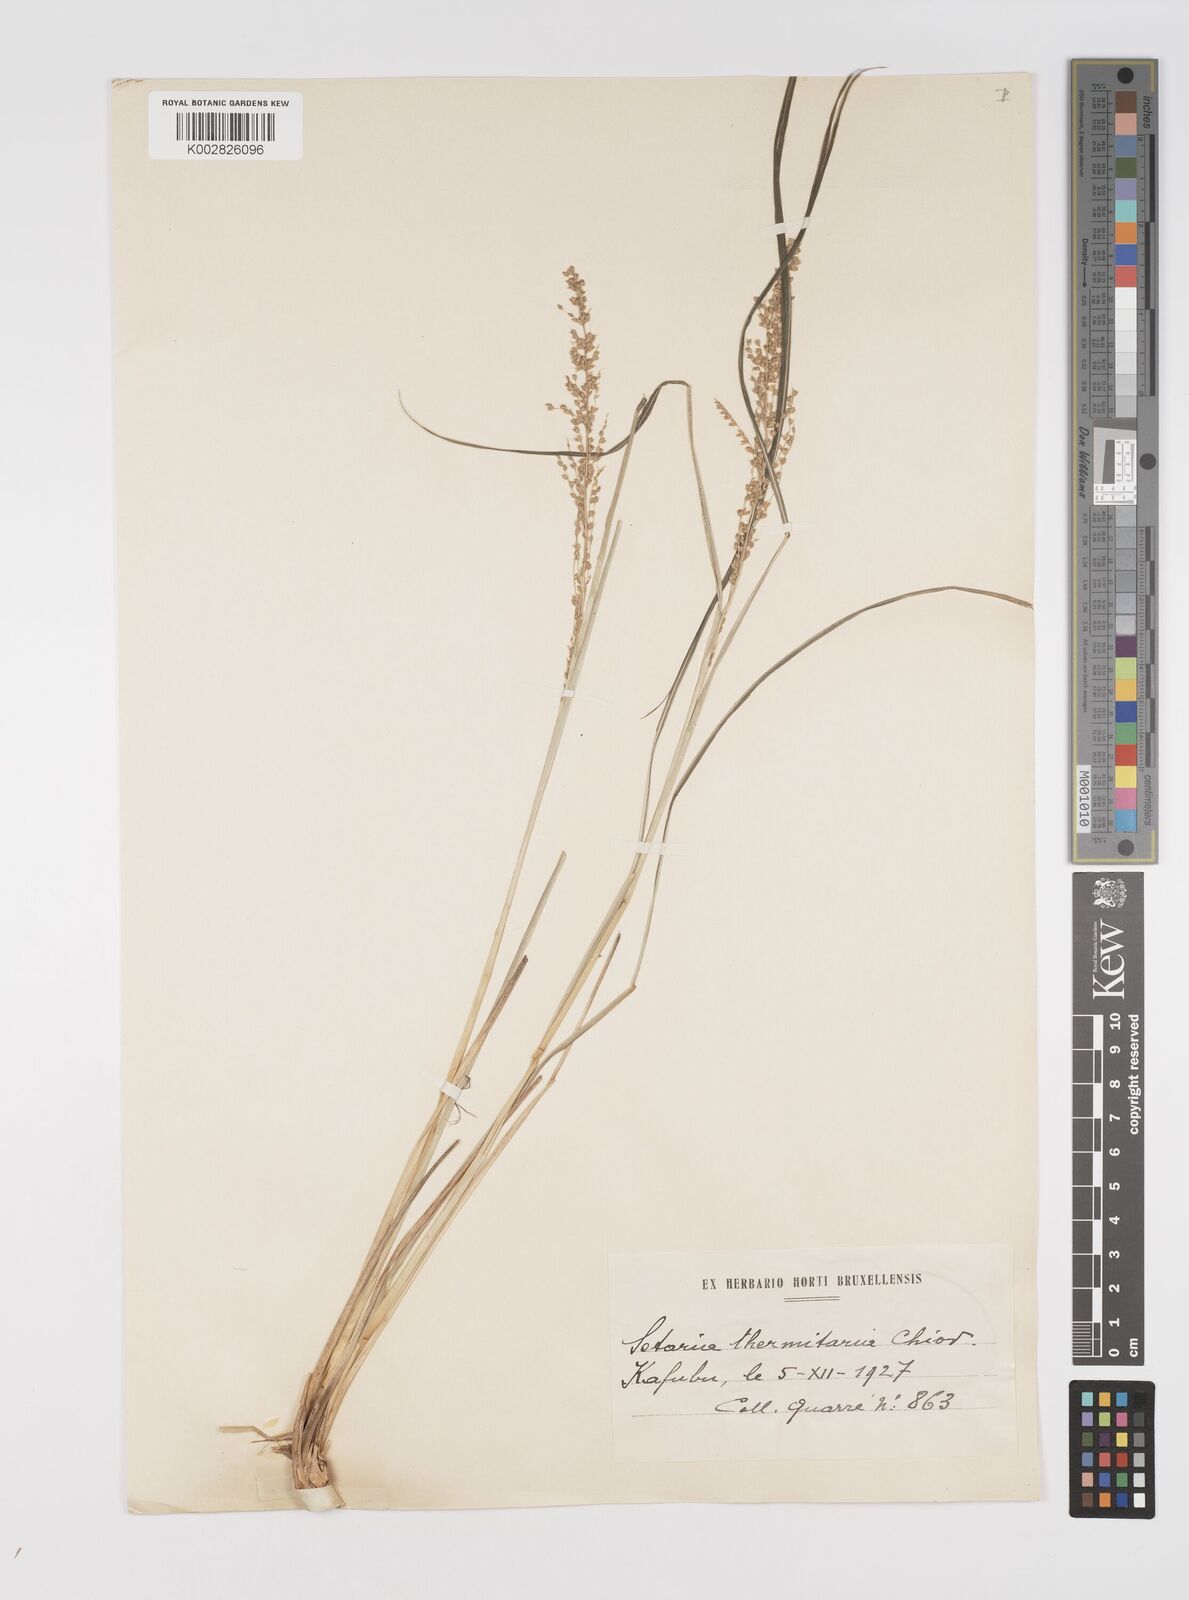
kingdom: Plantae
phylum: Tracheophyta
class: Liliopsida
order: Poales
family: Poaceae
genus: Setaria
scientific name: Setaria lindenbergiana
